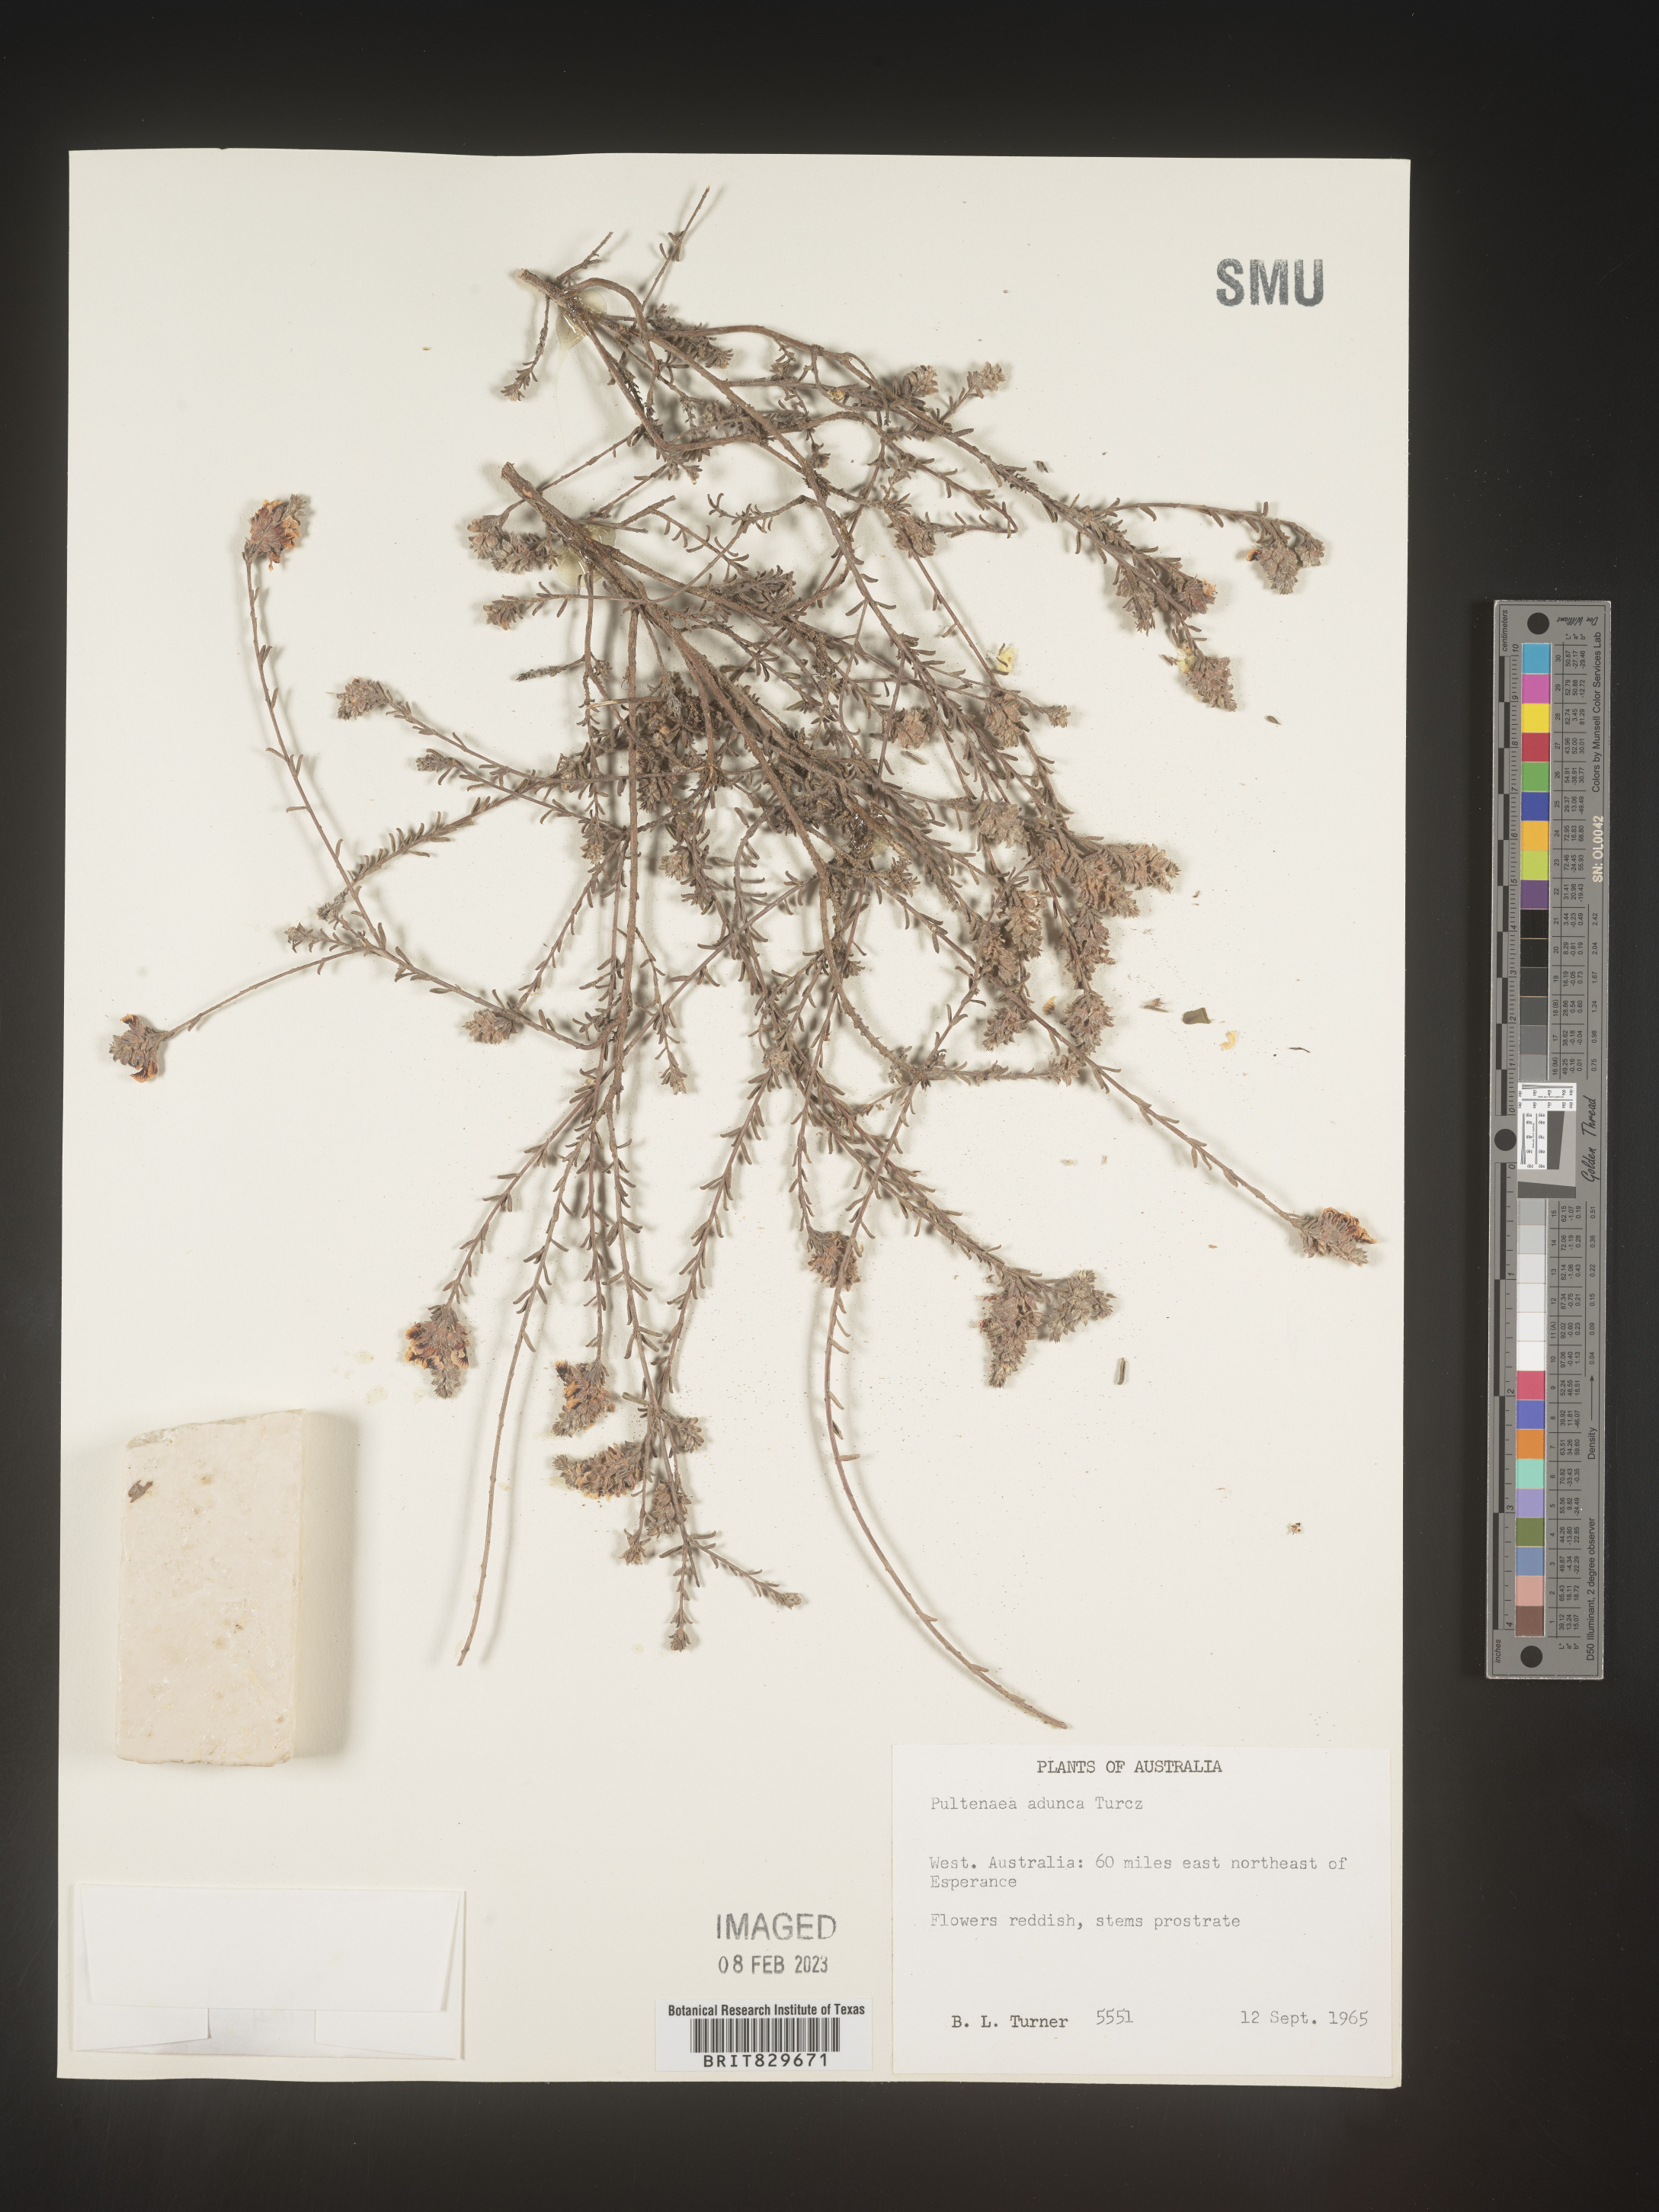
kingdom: Plantae
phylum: Tracheophyta
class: Magnoliopsida
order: Fabales
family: Fabaceae
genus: Pultenaea
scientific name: Pultenaea
